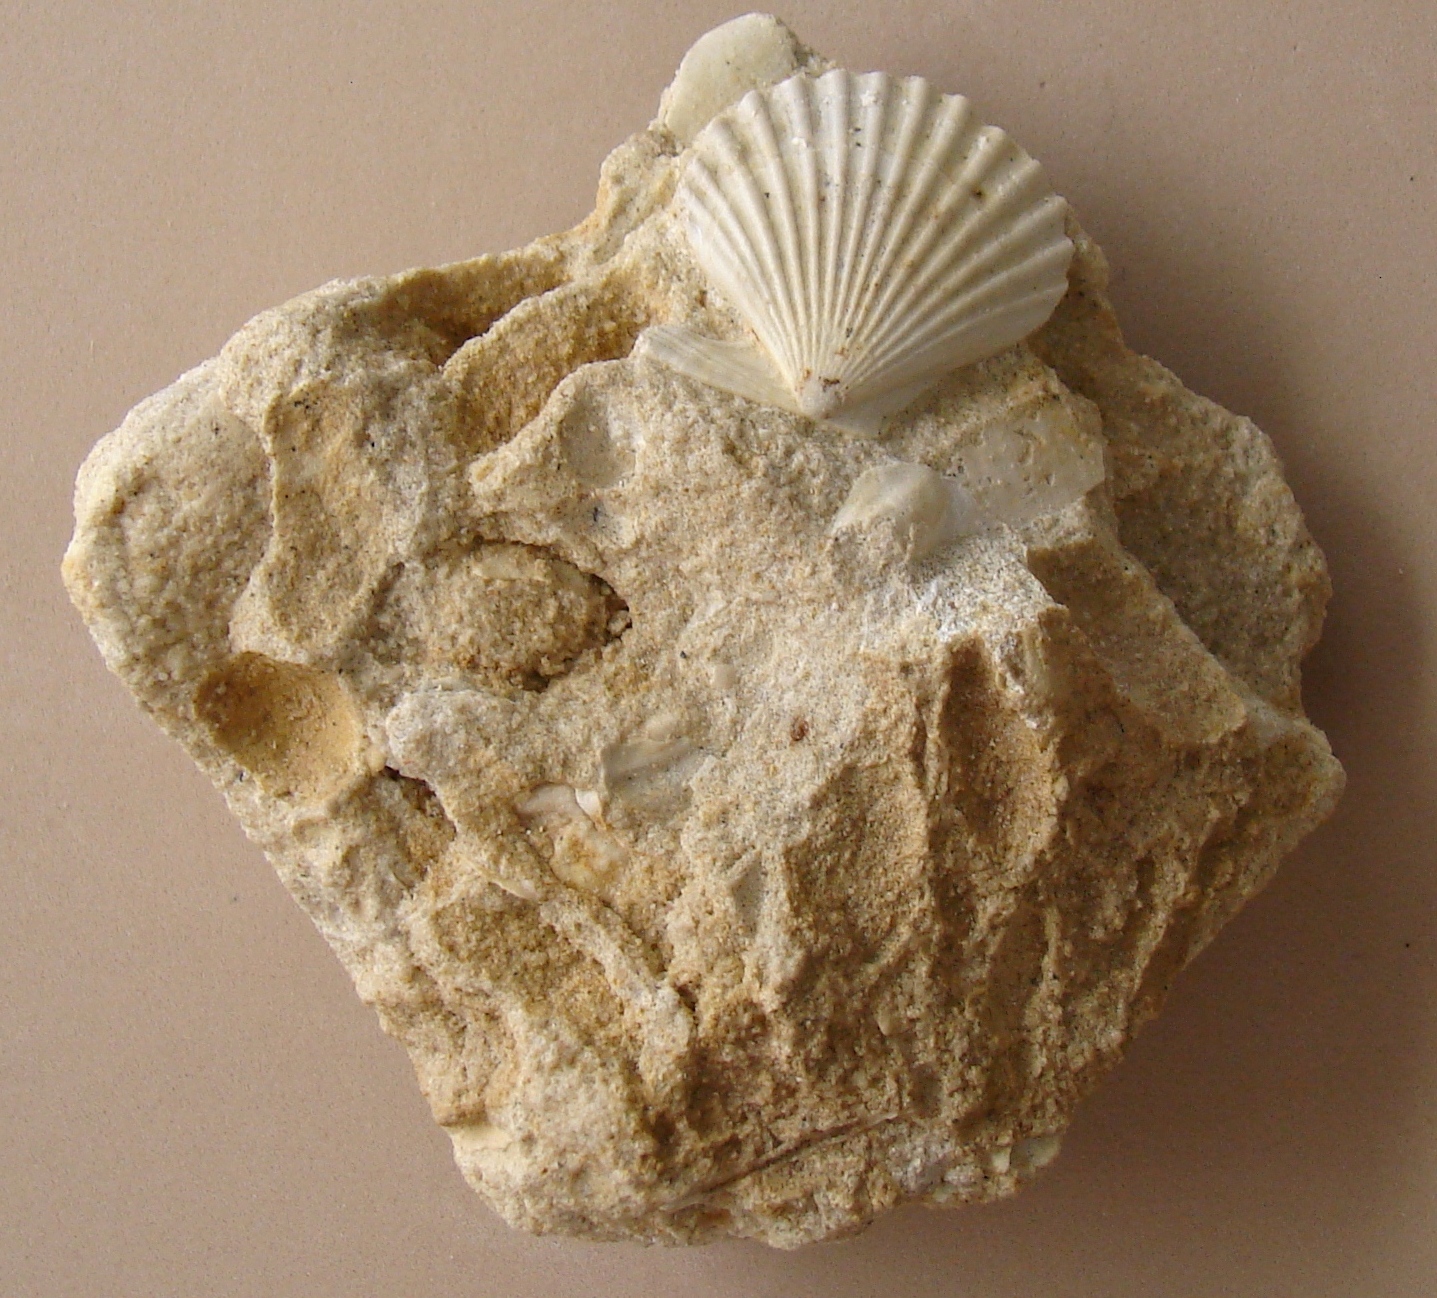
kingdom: Animalia
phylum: Mollusca
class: Bivalvia
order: Pectinida
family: Pectinidae
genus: Pseudopecten
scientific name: Pseudopecten veyrasensis
